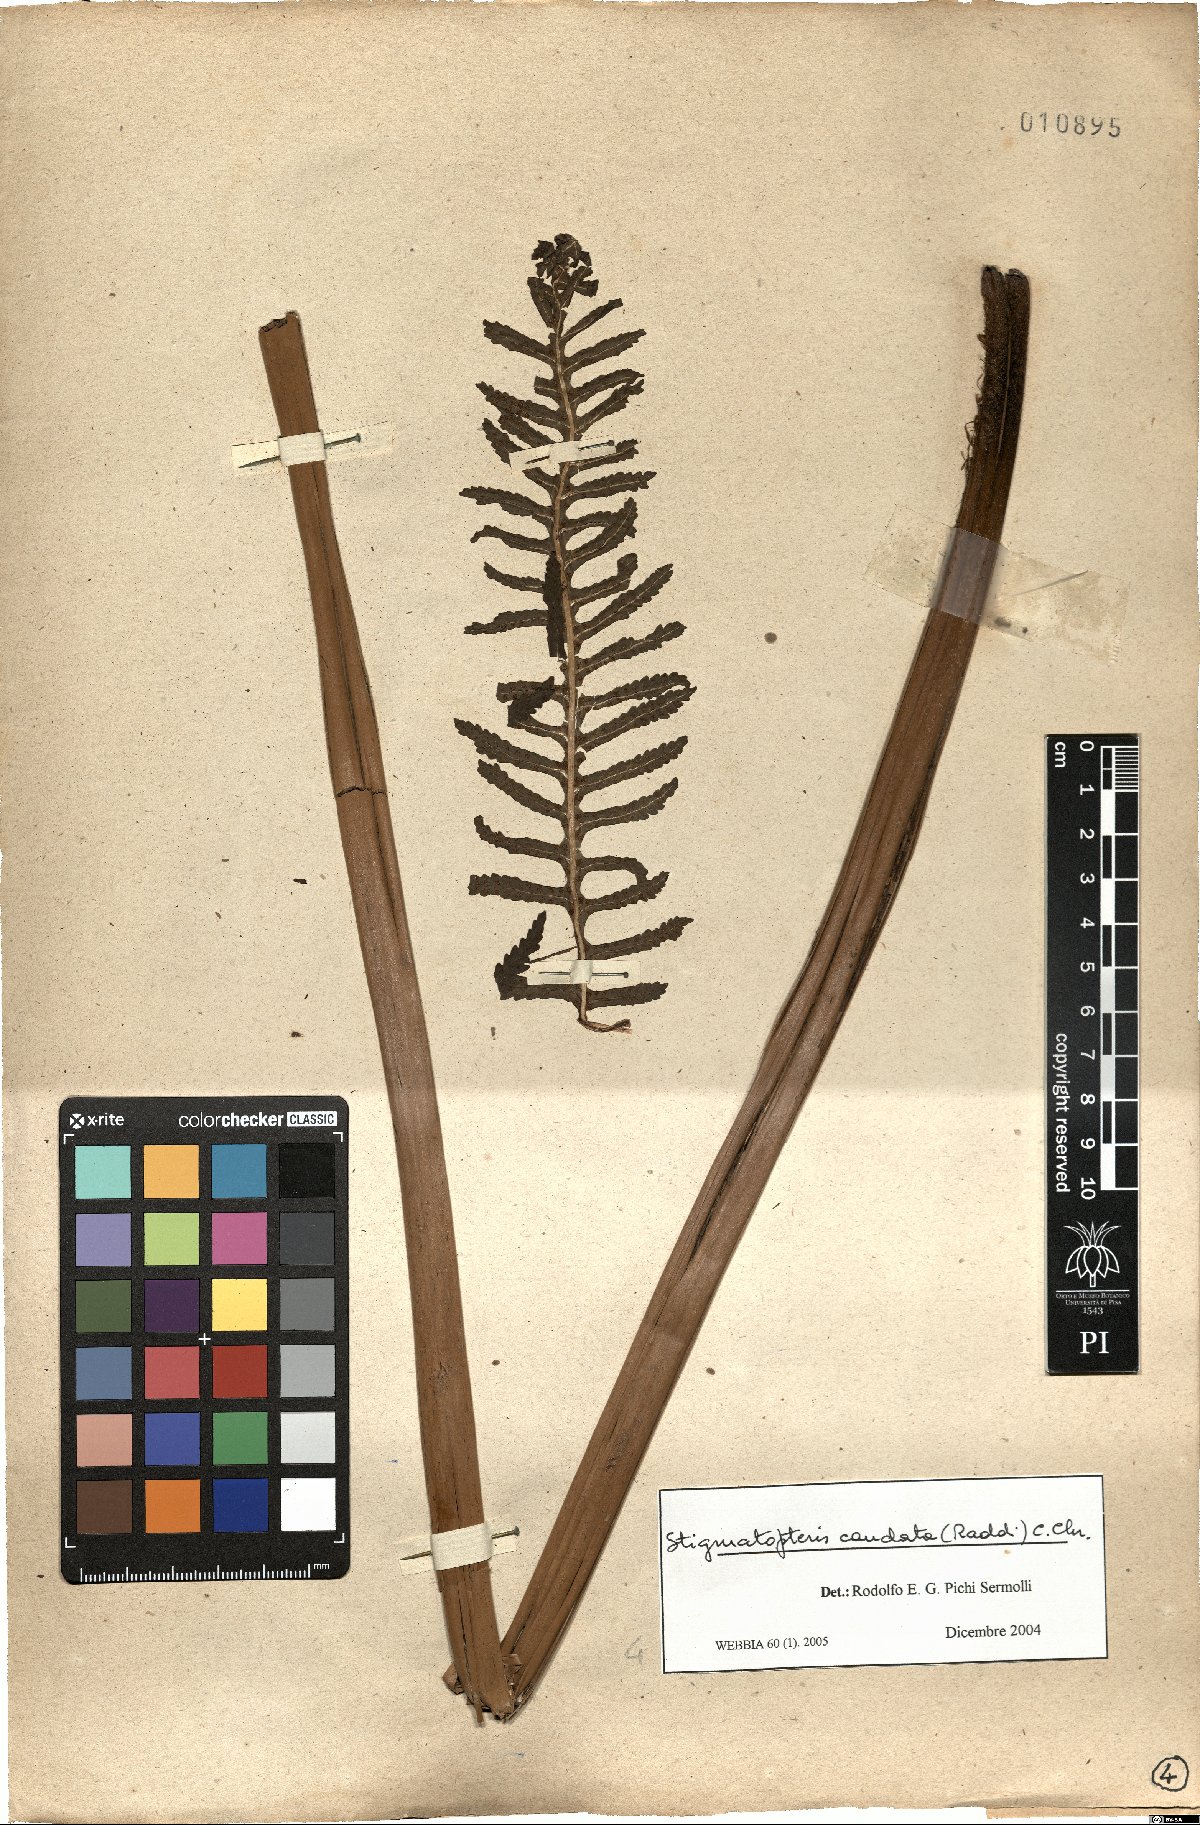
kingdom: Plantae
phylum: Tracheophyta
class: Polypodiopsida
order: Polypodiales
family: Dryopteridaceae
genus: Stigmatopteris
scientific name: Stigmatopteris caudata
